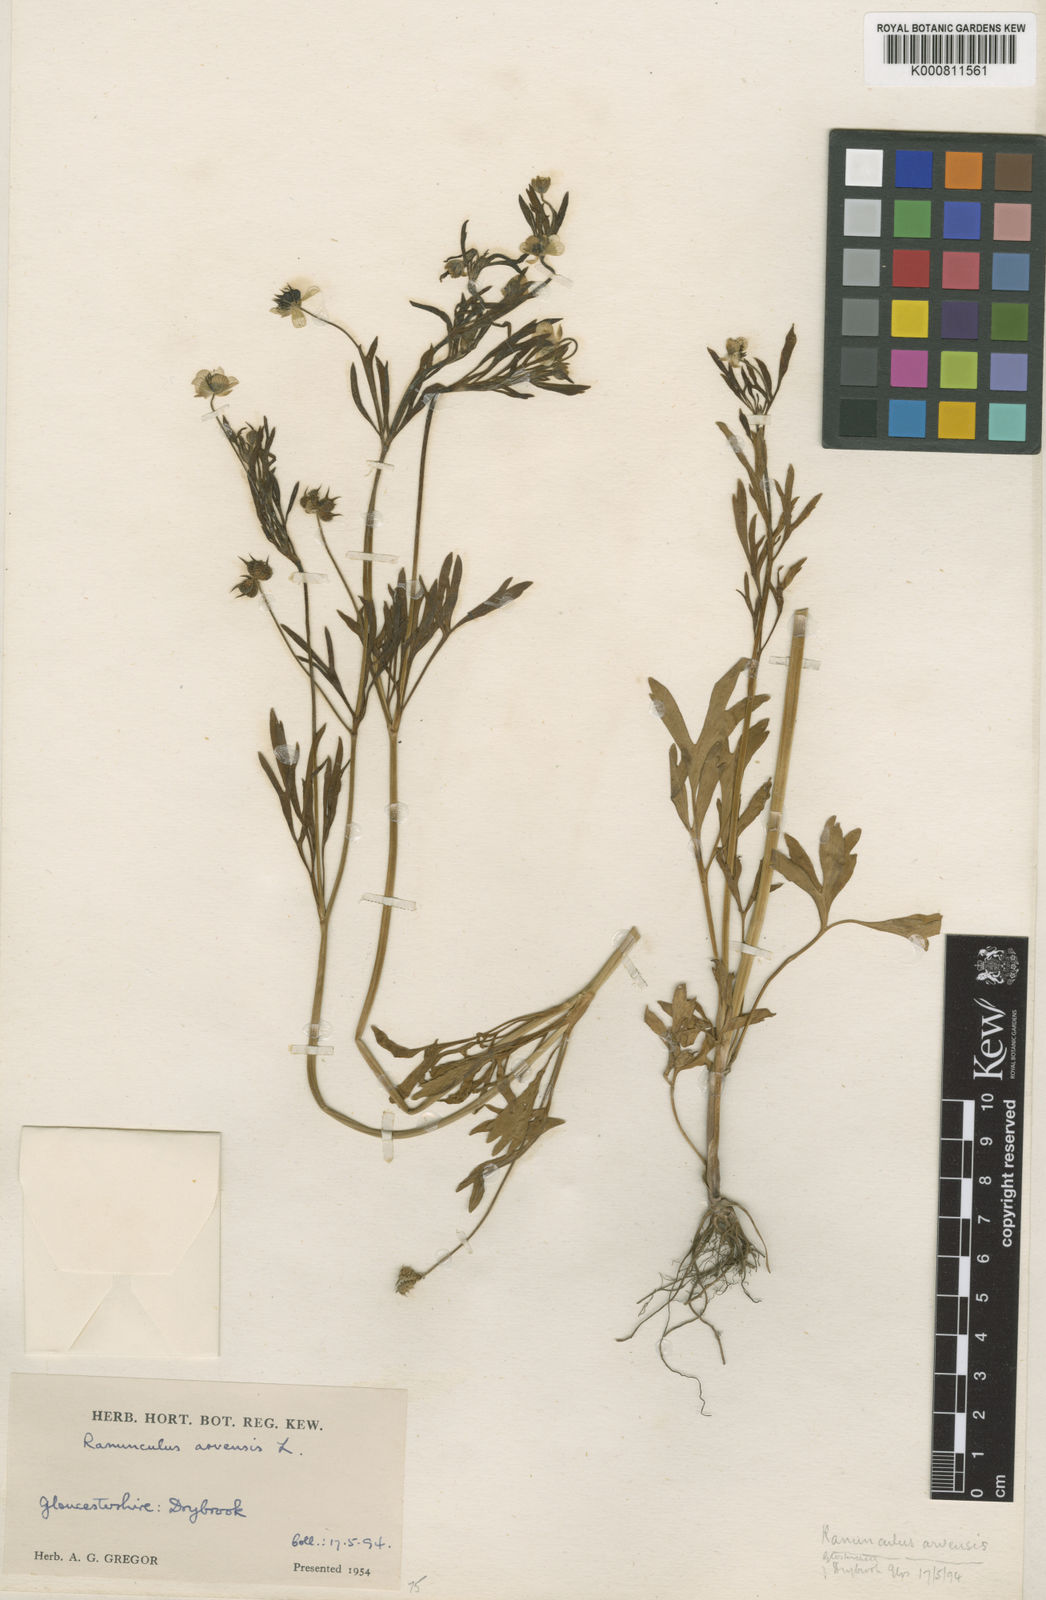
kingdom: Plantae
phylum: Tracheophyta
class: Magnoliopsida
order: Ranunculales
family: Ranunculaceae
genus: Ranunculus
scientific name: Ranunculus arvensis
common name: Corn buttercup
